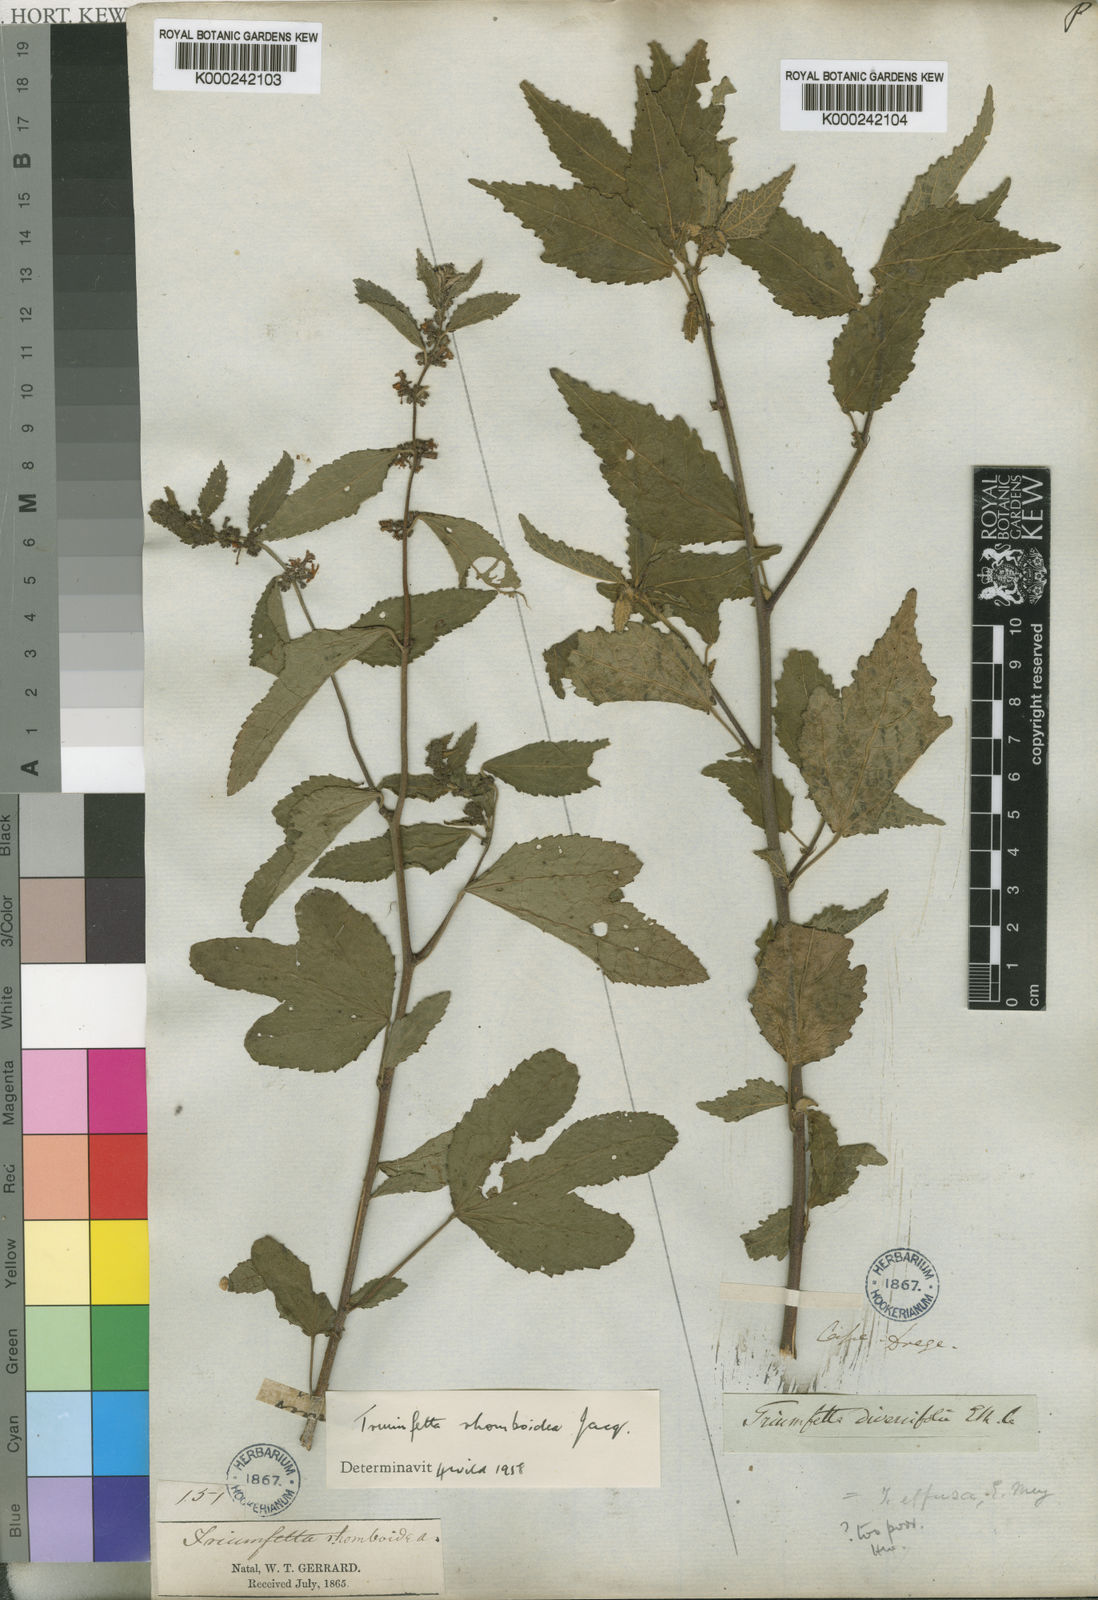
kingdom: Plantae
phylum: Tracheophyta
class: Magnoliopsida
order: Malvales
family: Malvaceae
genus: Triumfetta
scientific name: Triumfetta rhomboidea
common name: Diamond burbark
